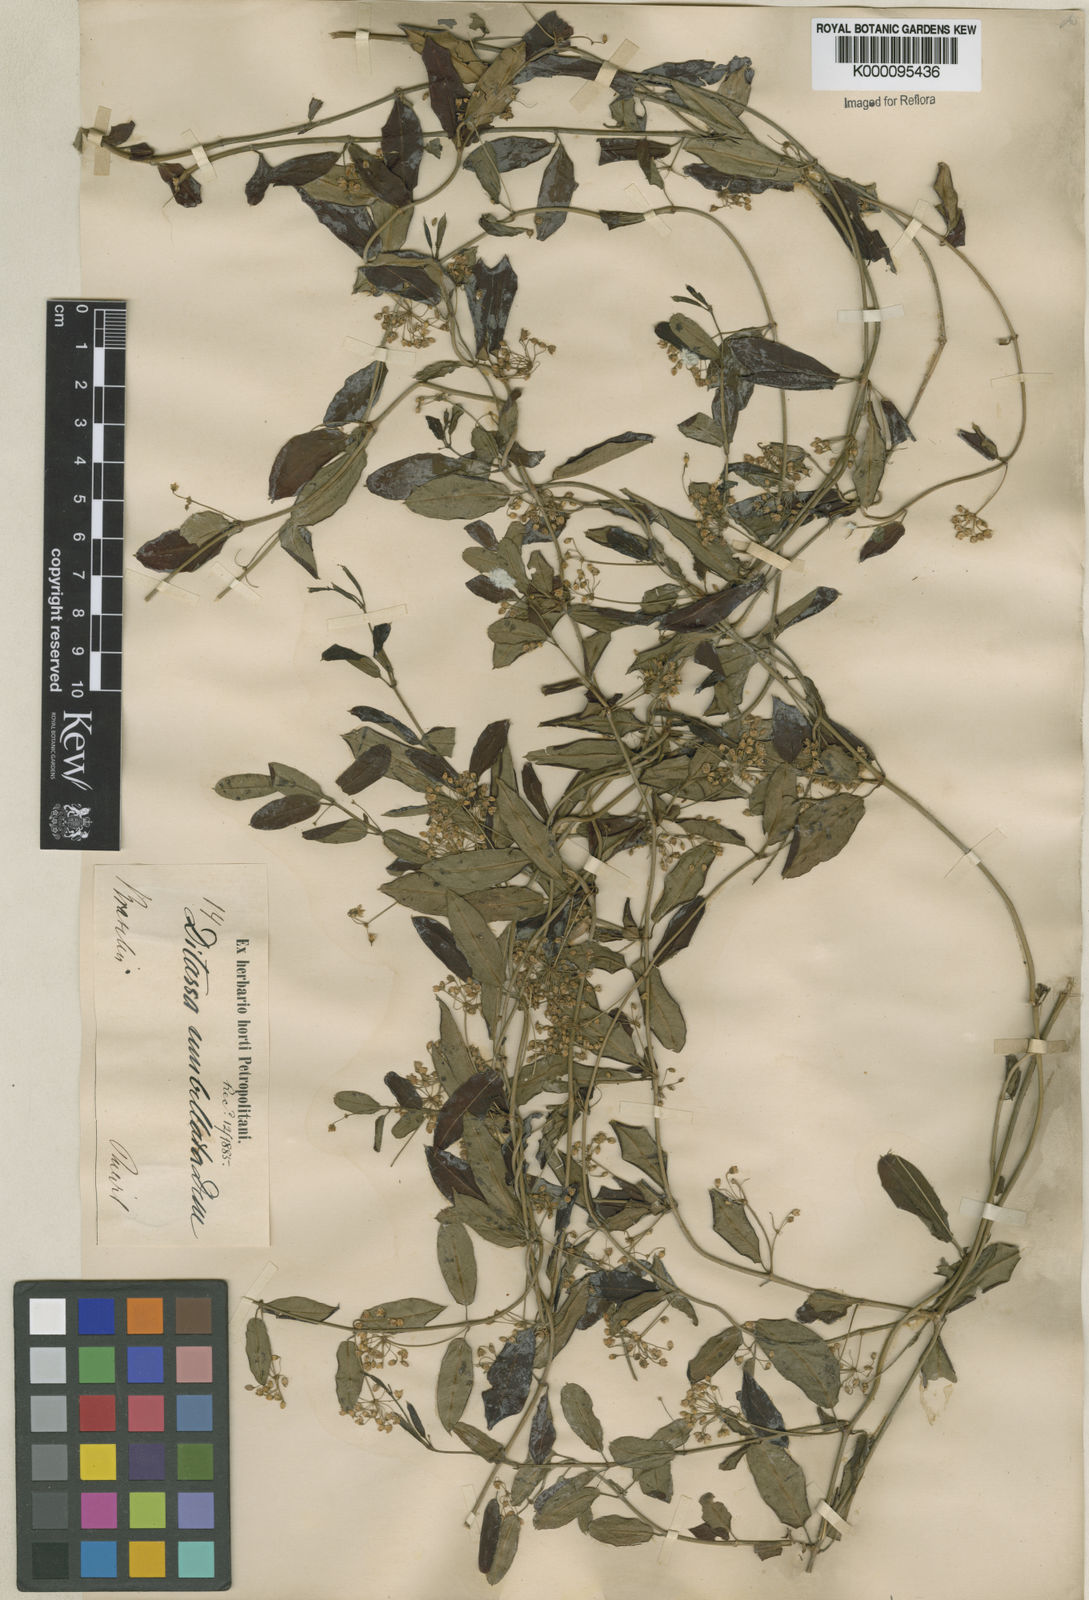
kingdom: Plantae
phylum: Tracheophyta
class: Magnoliopsida
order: Gentianales
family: Apocynaceae
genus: Ditassa
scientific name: Ditassa banksii
